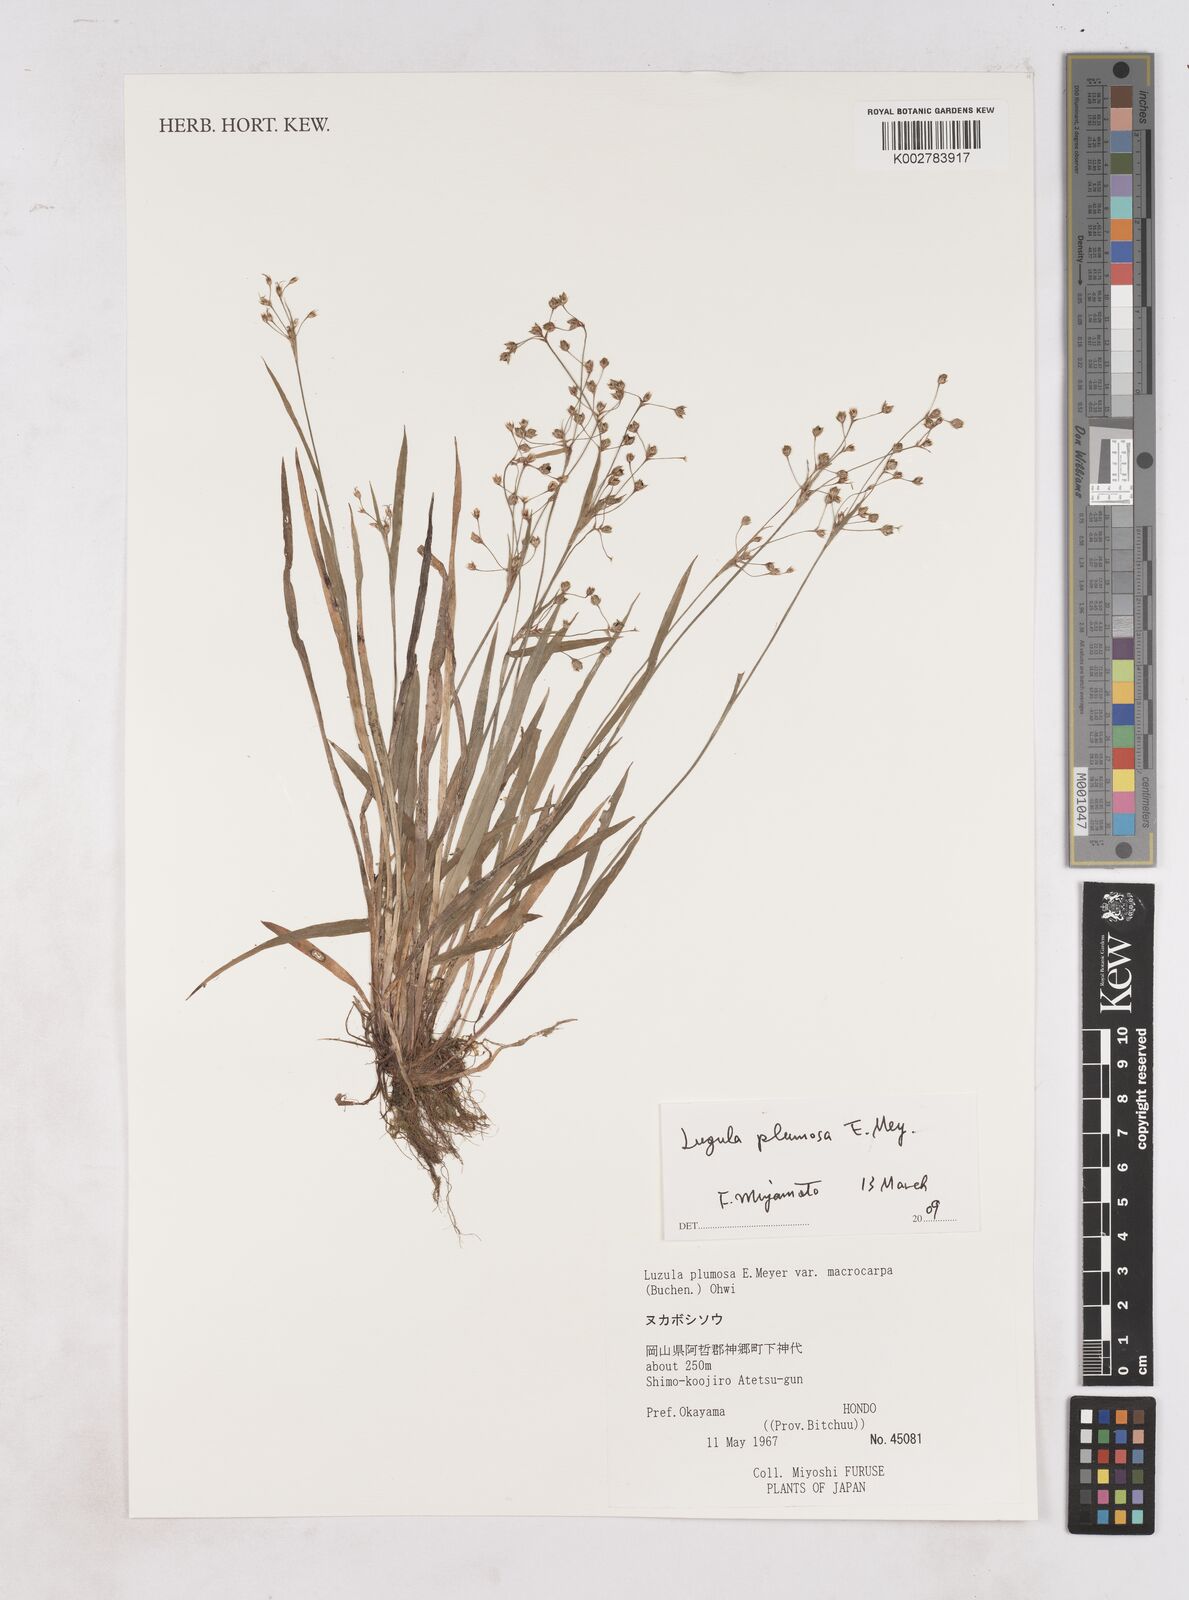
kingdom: Plantae
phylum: Tracheophyta
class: Liliopsida
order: Poales
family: Juncaceae
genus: Luzula
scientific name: Luzula plumosa
